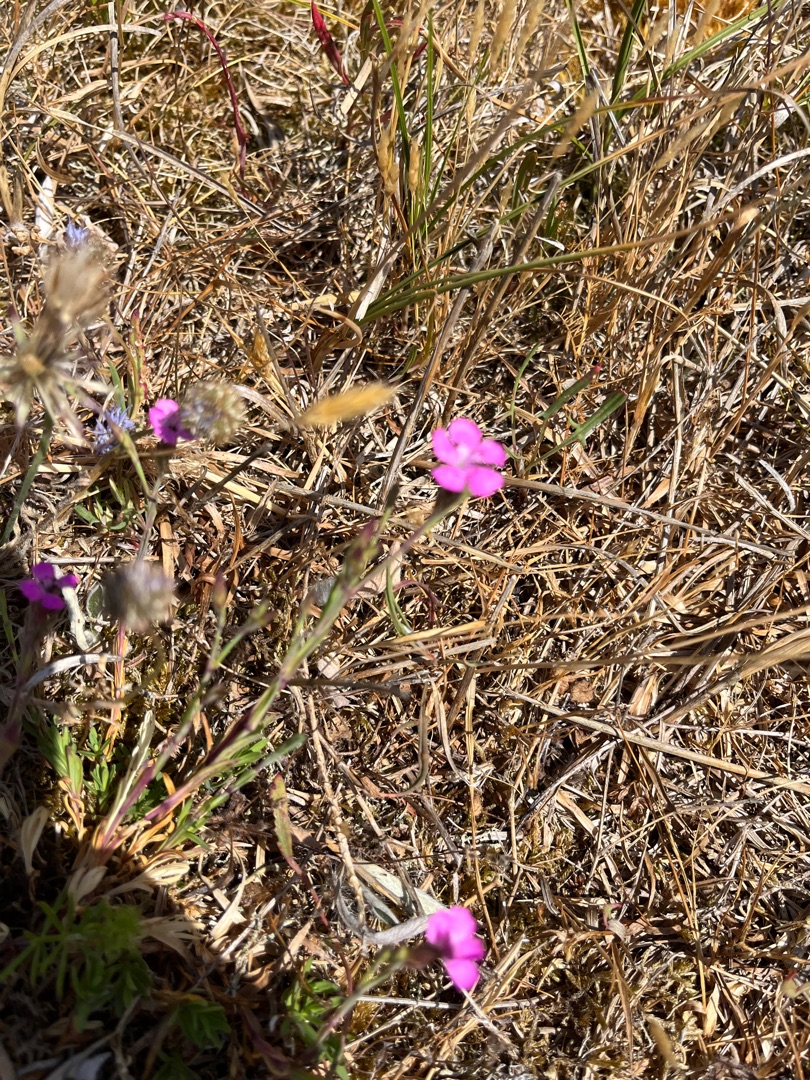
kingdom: Plantae
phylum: Tracheophyta
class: Magnoliopsida
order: Caryophyllales
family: Caryophyllaceae
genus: Dianthus
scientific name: Dianthus deltoides
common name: Bakke-nellike
